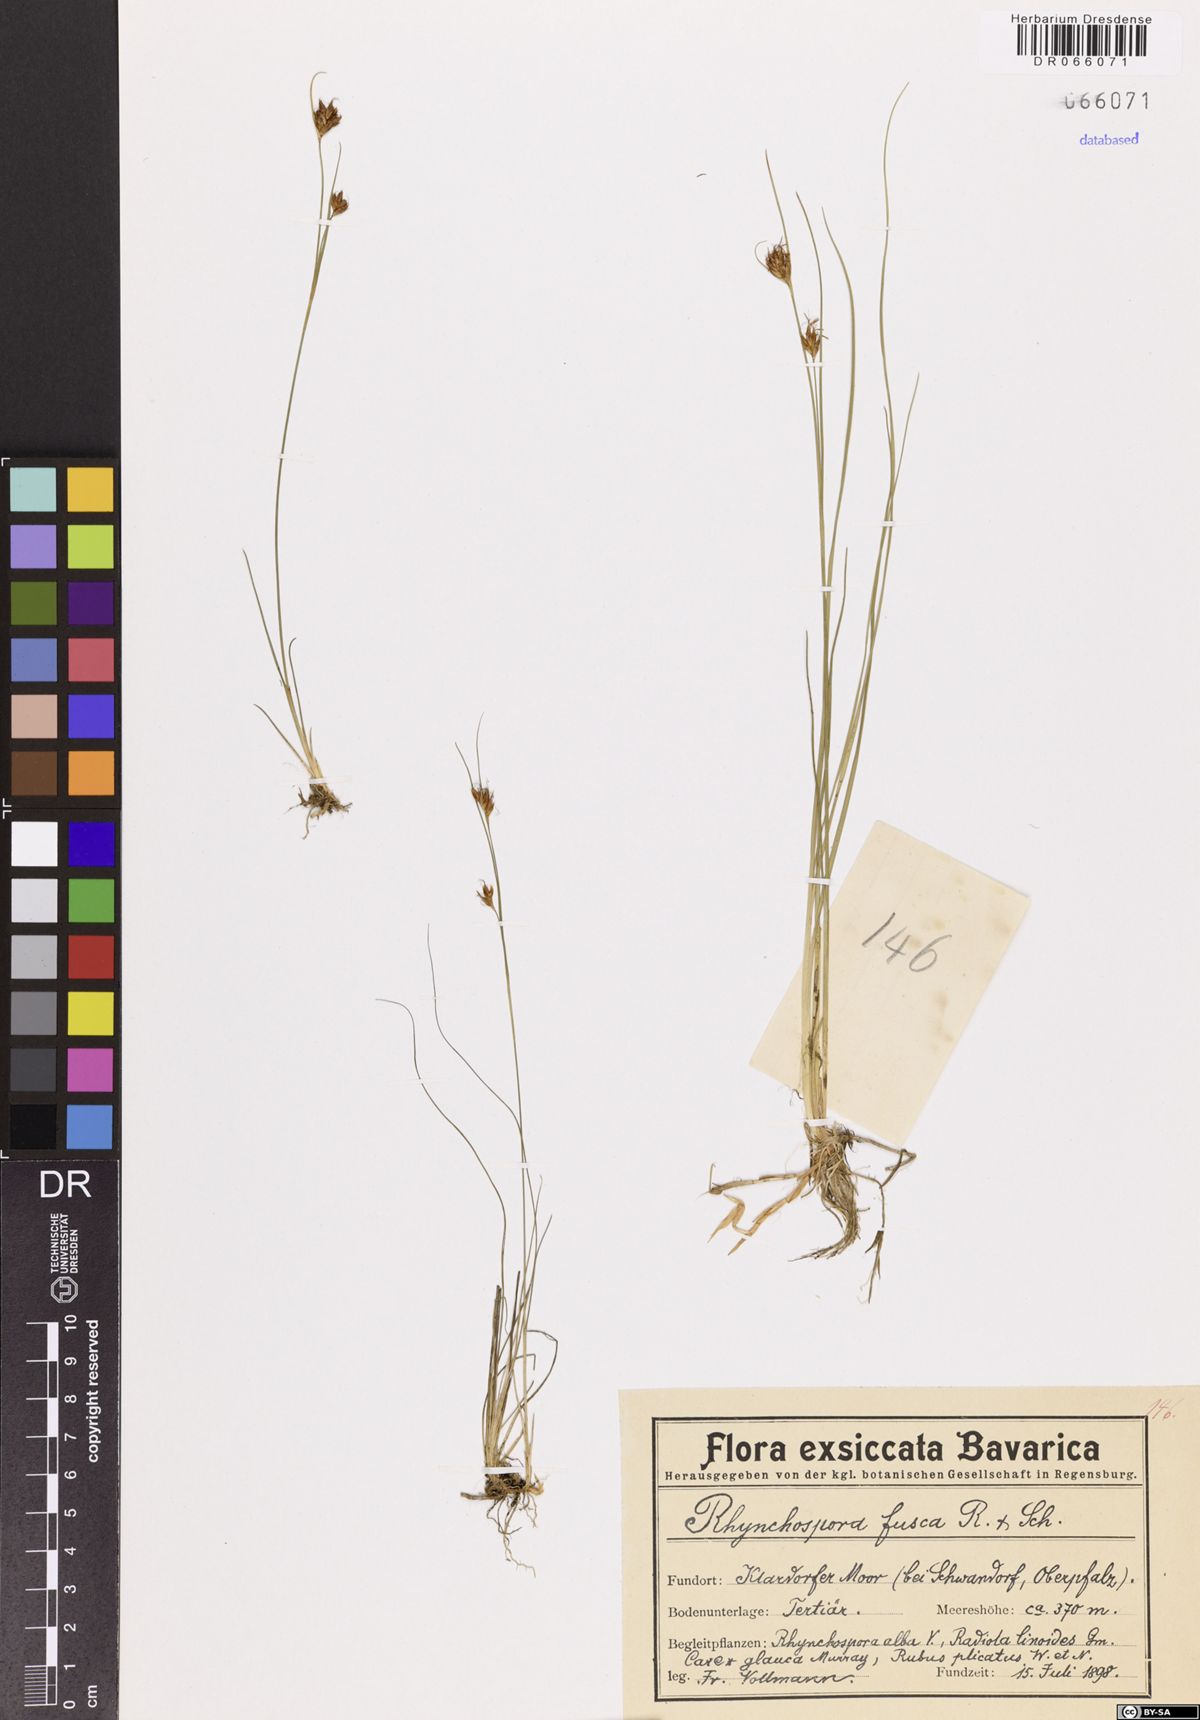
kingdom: Plantae
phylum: Tracheophyta
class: Liliopsida
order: Poales
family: Cyperaceae
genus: Rhynchospora
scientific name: Rhynchospora fusca
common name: Brown beak-sedge
